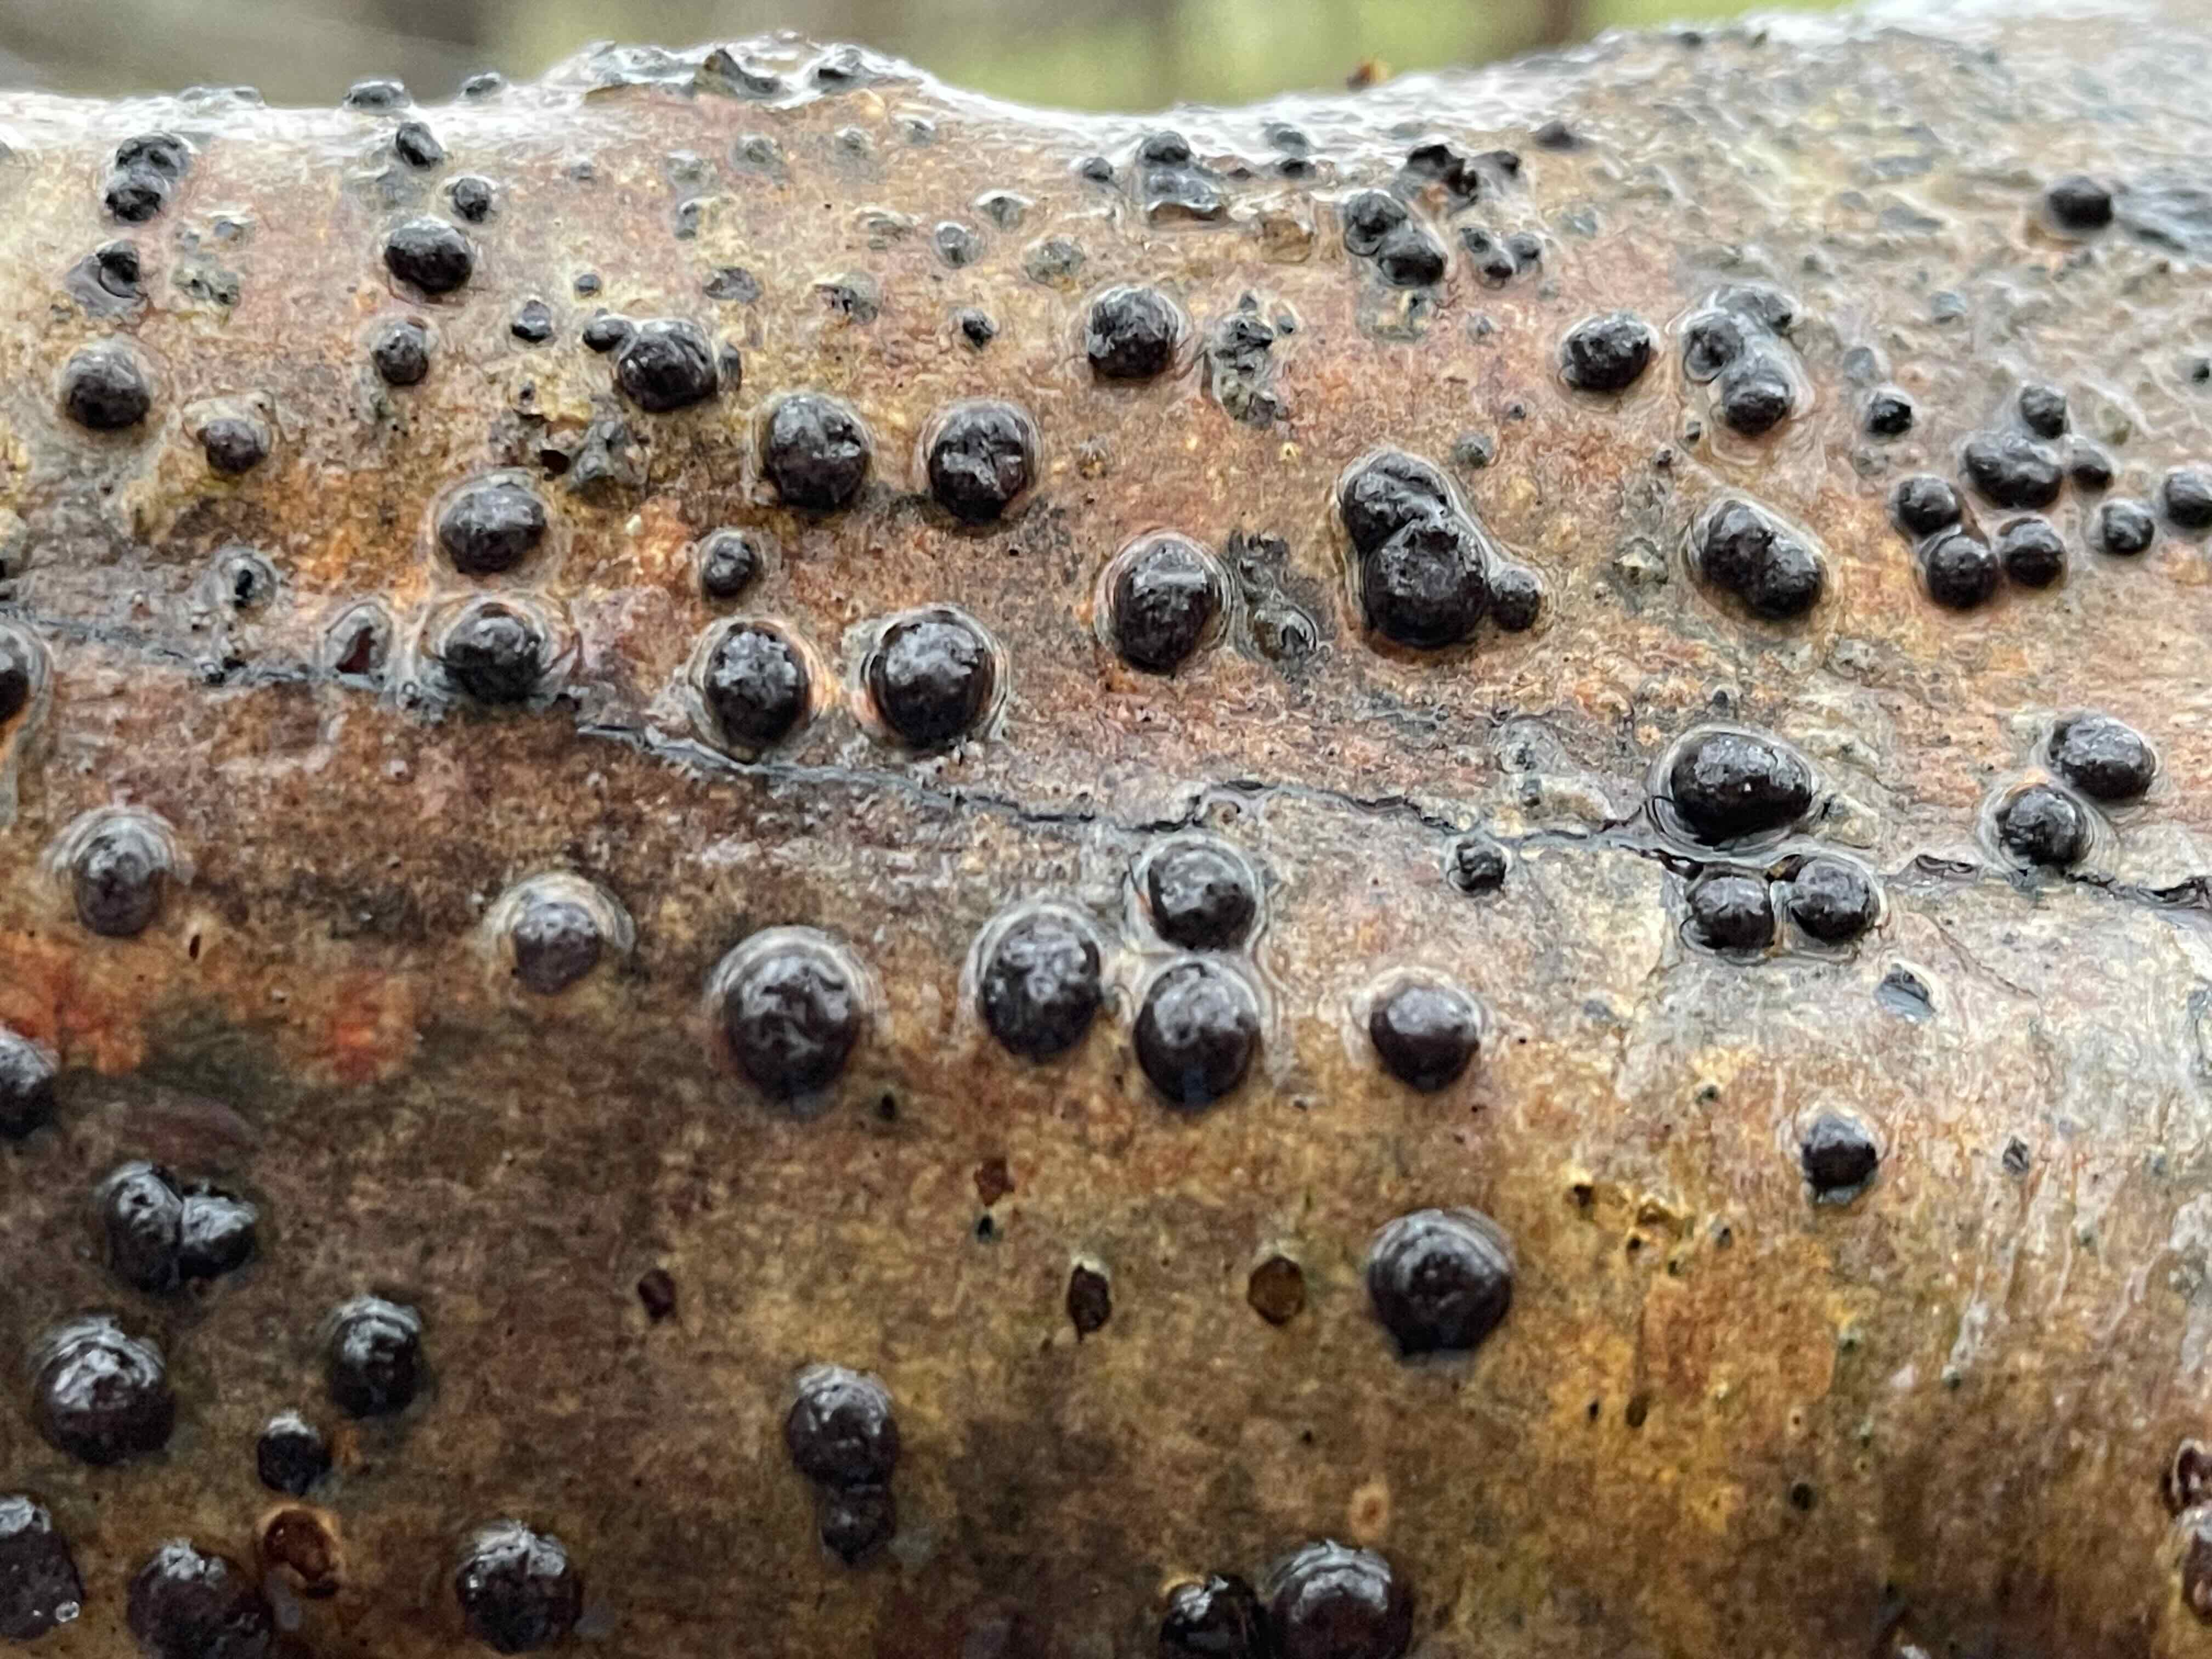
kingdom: Fungi
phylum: Ascomycota
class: Sordariomycetes
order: Xylariales
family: Hypoxylaceae
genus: Hypoxylon
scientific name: Hypoxylon fuscum
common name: kegleformet kulbær
